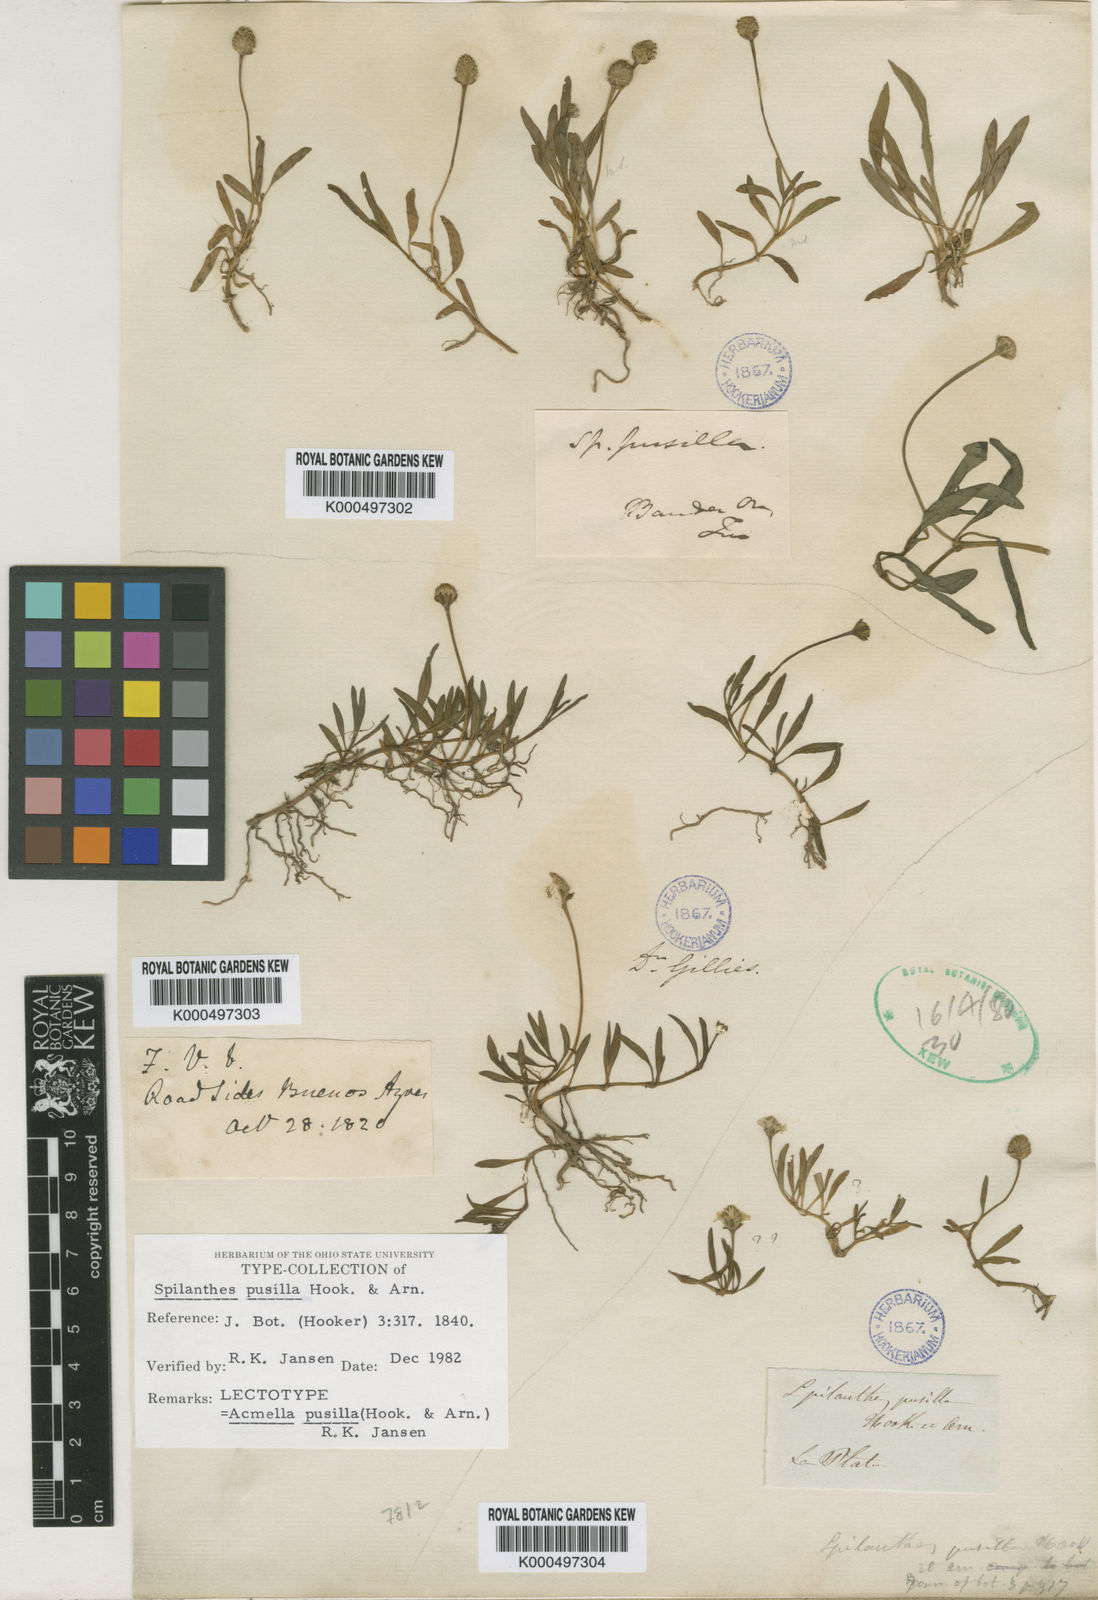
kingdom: Plantae
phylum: Tracheophyta
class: Magnoliopsida
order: Asterales
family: Asteraceae
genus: Acmella
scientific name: Acmella pusilla
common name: Dwarf spotflower
